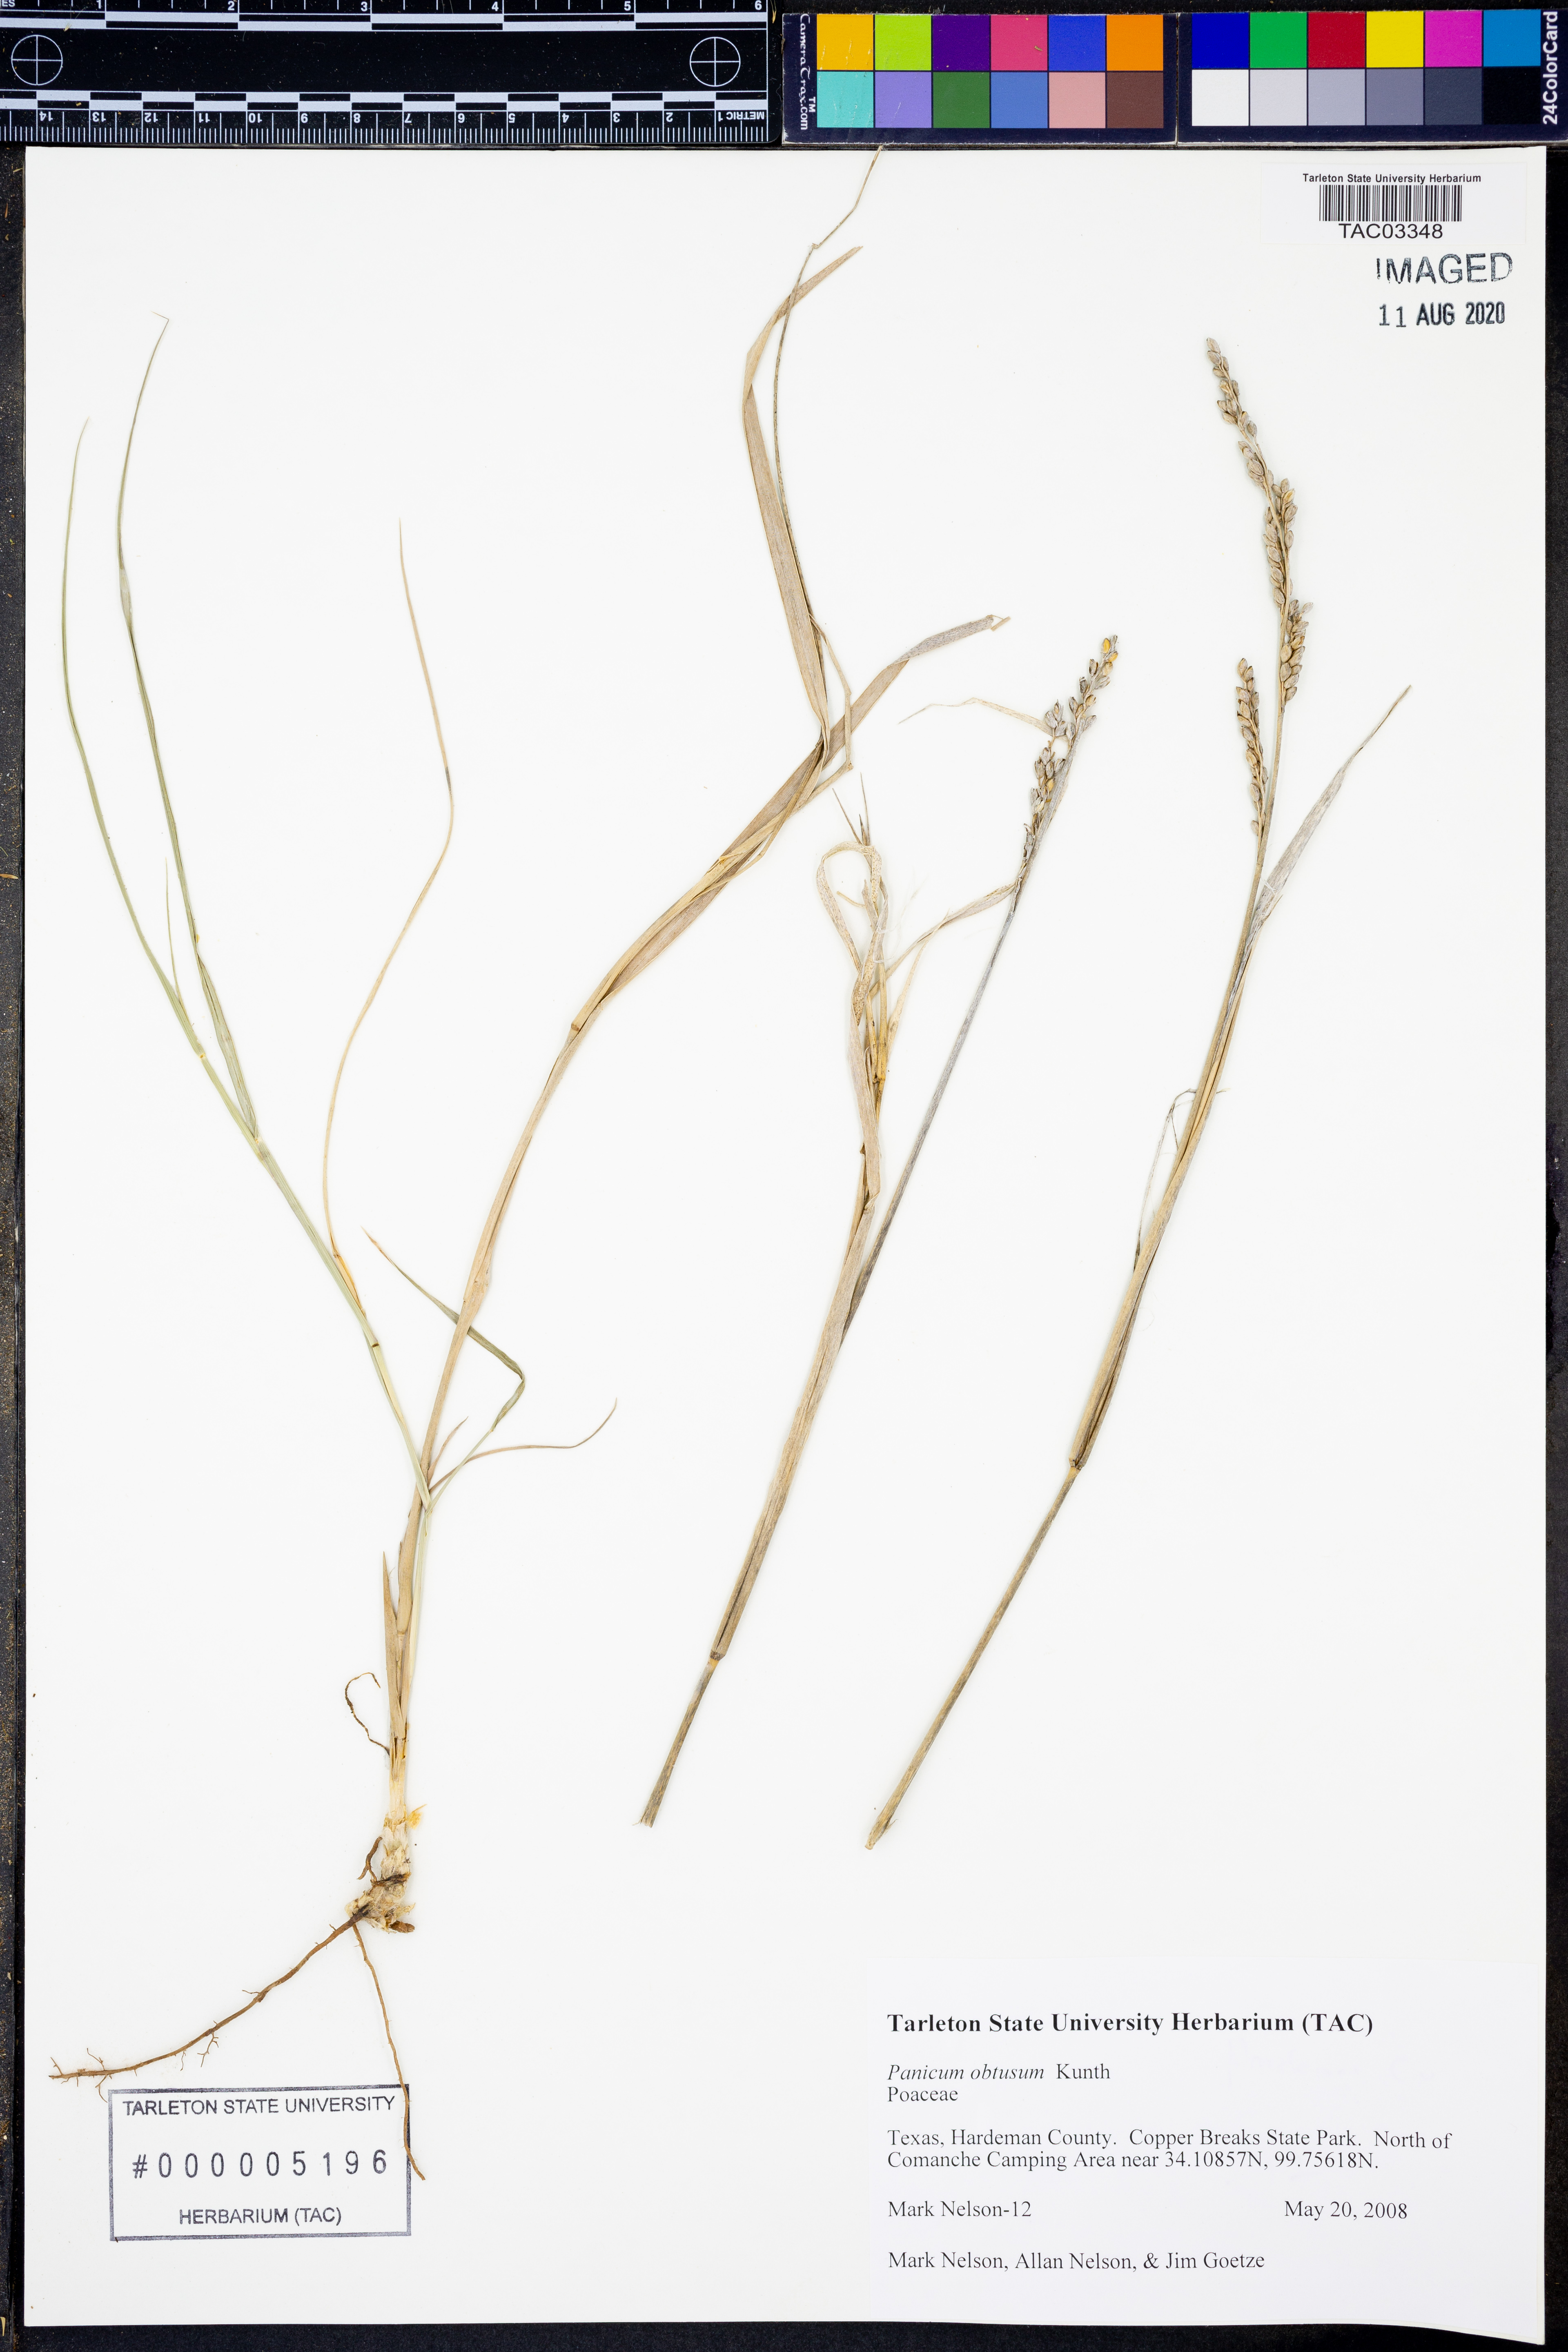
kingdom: Plantae
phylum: Tracheophyta
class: Liliopsida
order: Poales
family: Poaceae
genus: Hopia
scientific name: Hopia obtusa
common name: Vine-mesquite
